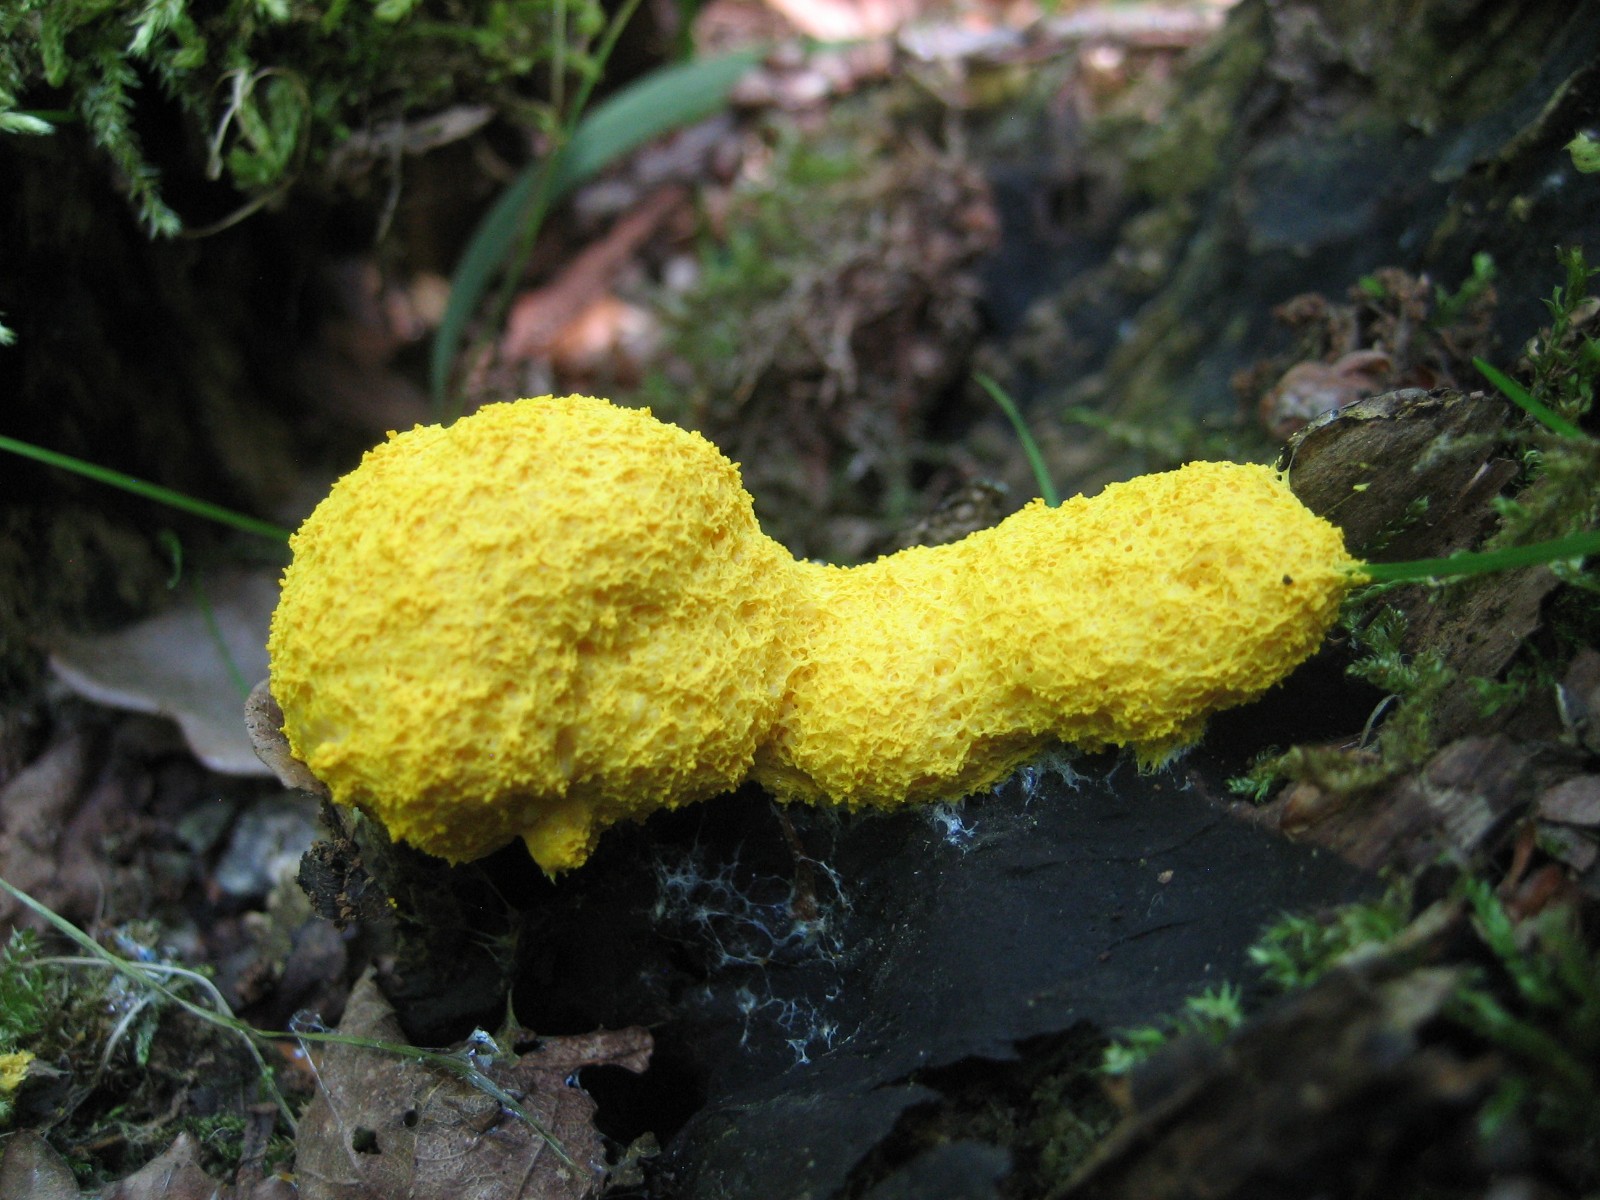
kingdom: Protozoa
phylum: Mycetozoa
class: Myxomycetes
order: Physarales
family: Physaraceae
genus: Fuligo
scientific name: Fuligo septica
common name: gul troldsmør
